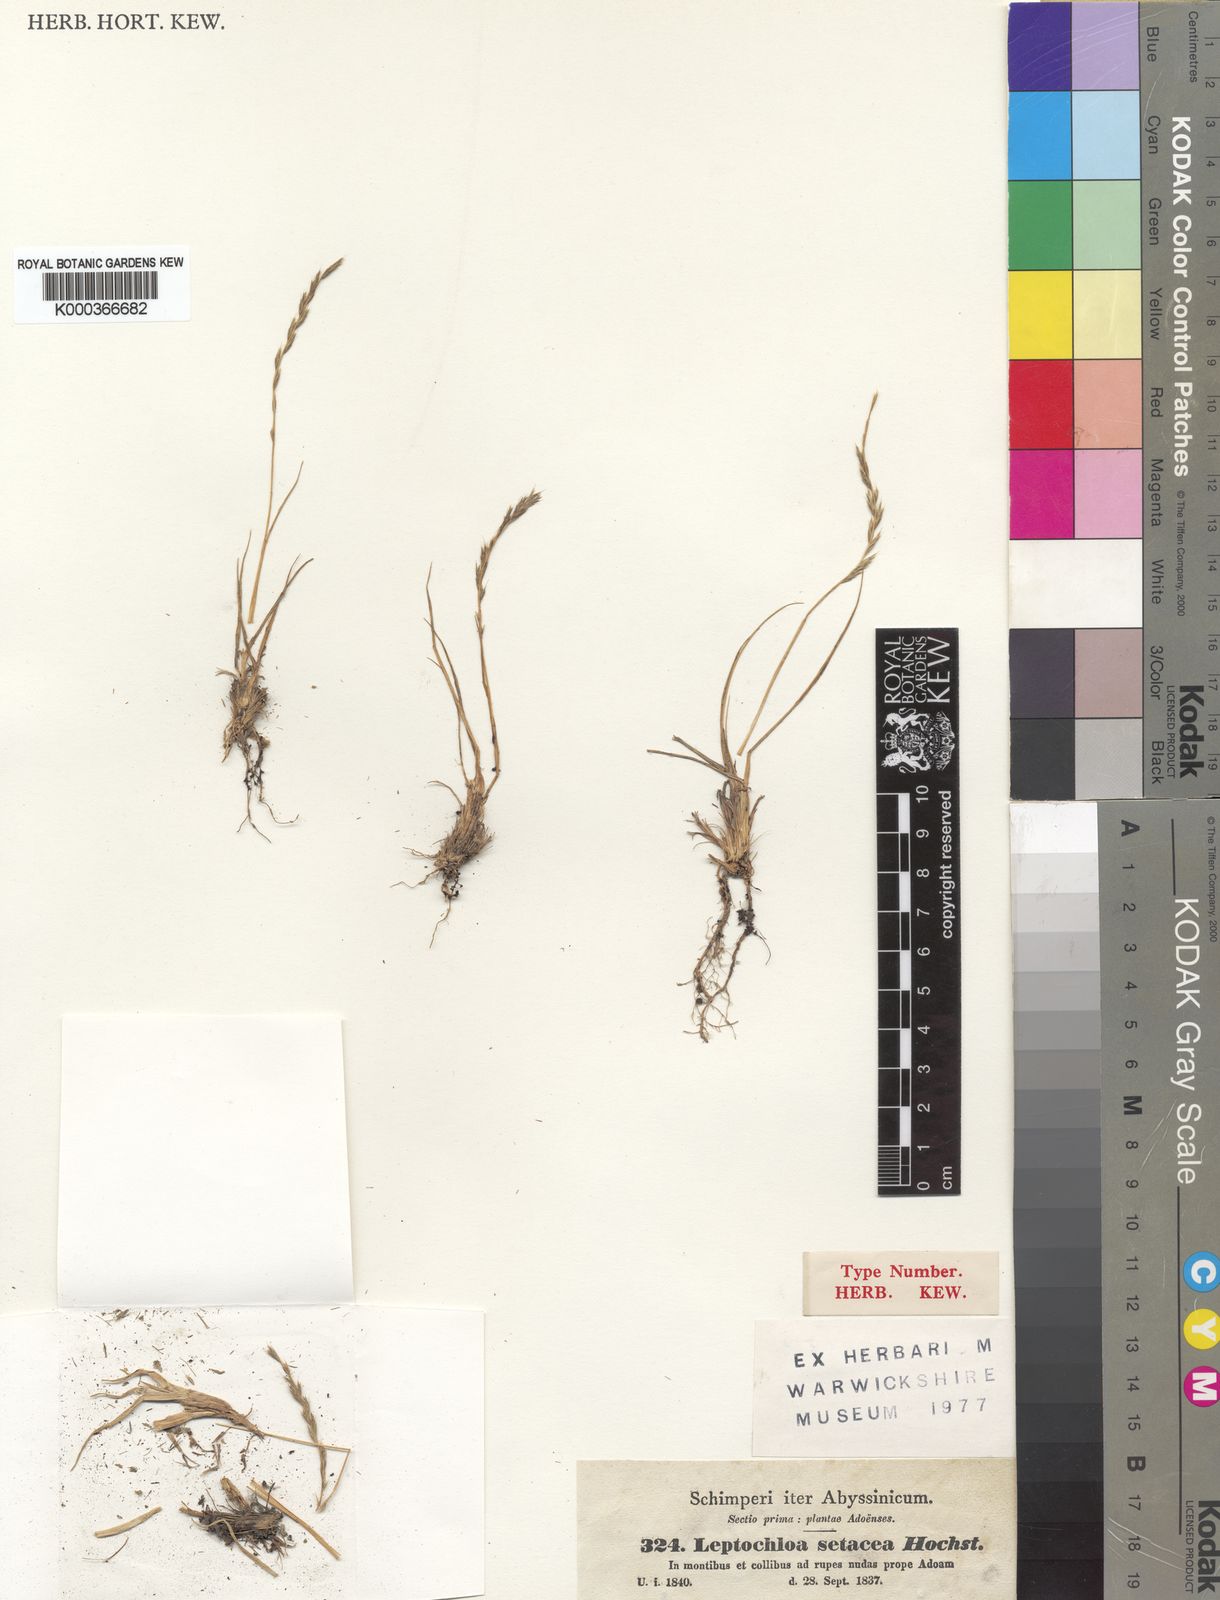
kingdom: Plantae
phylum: Tracheophyta
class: Liliopsida
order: Poales
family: Poaceae
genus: Tripogon
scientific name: Tripogon leptophyllus
